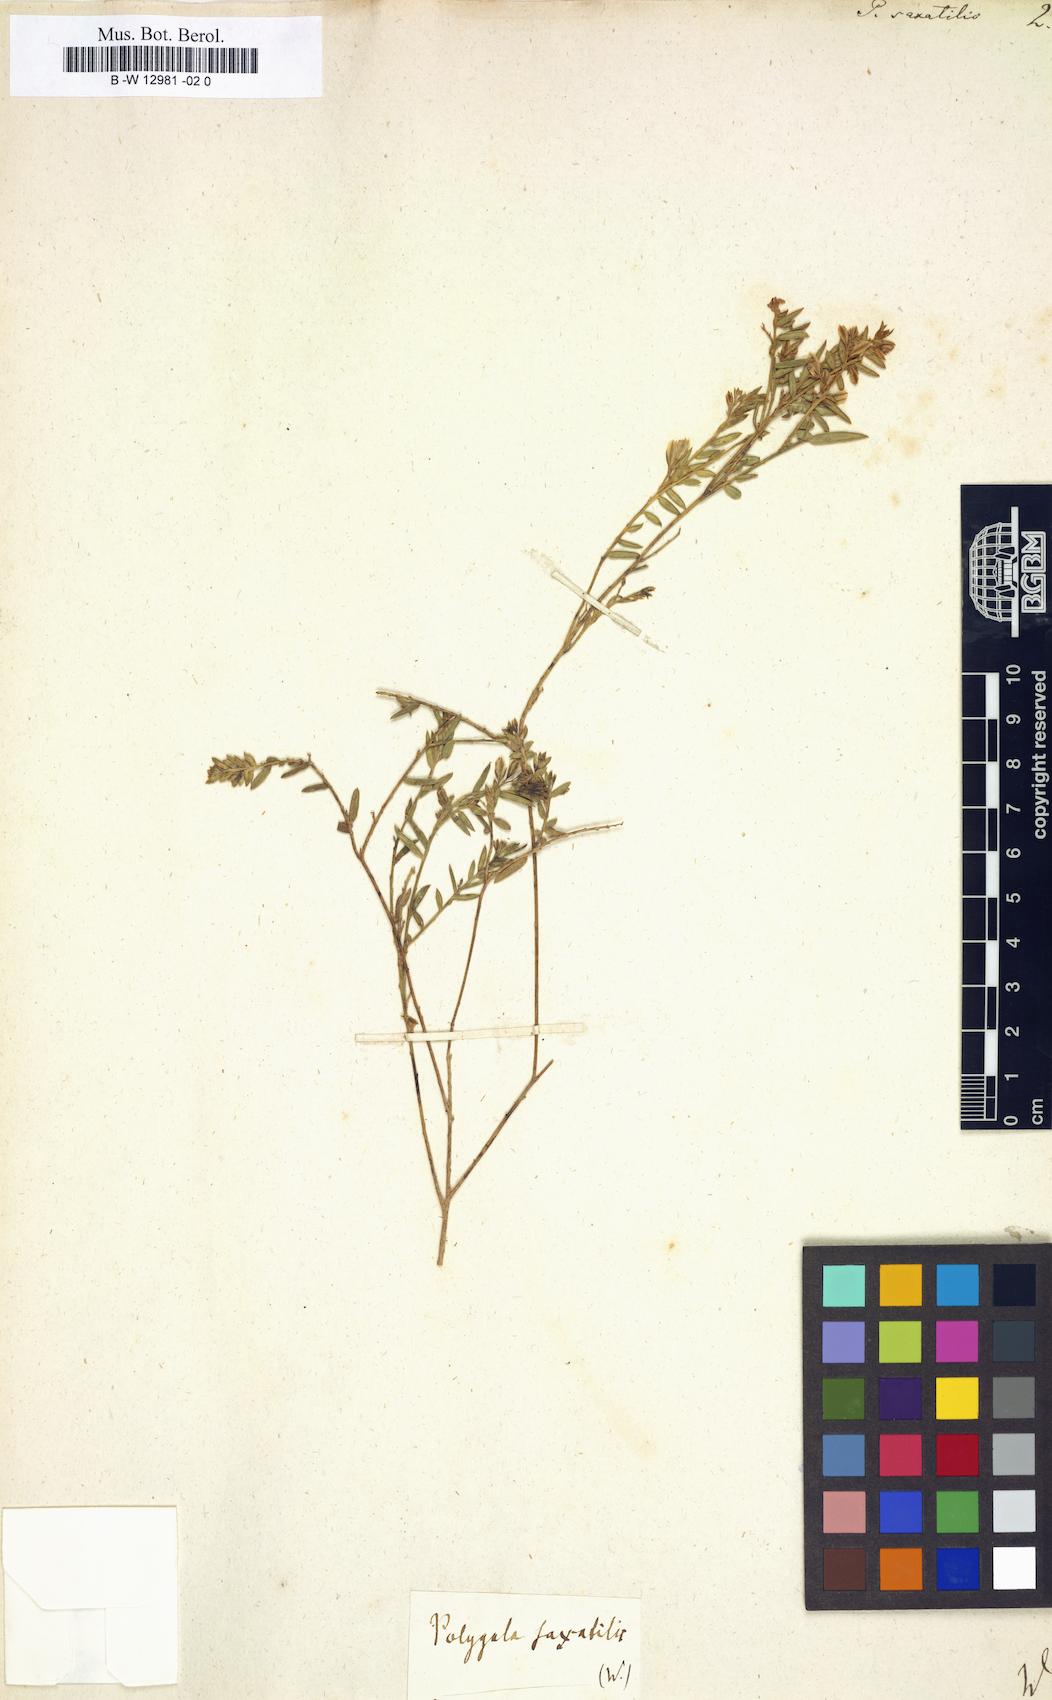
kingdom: Plantae
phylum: Tracheophyta
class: Magnoliopsida
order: Fabales
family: Polygalaceae
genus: Polygala
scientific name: Polygala
